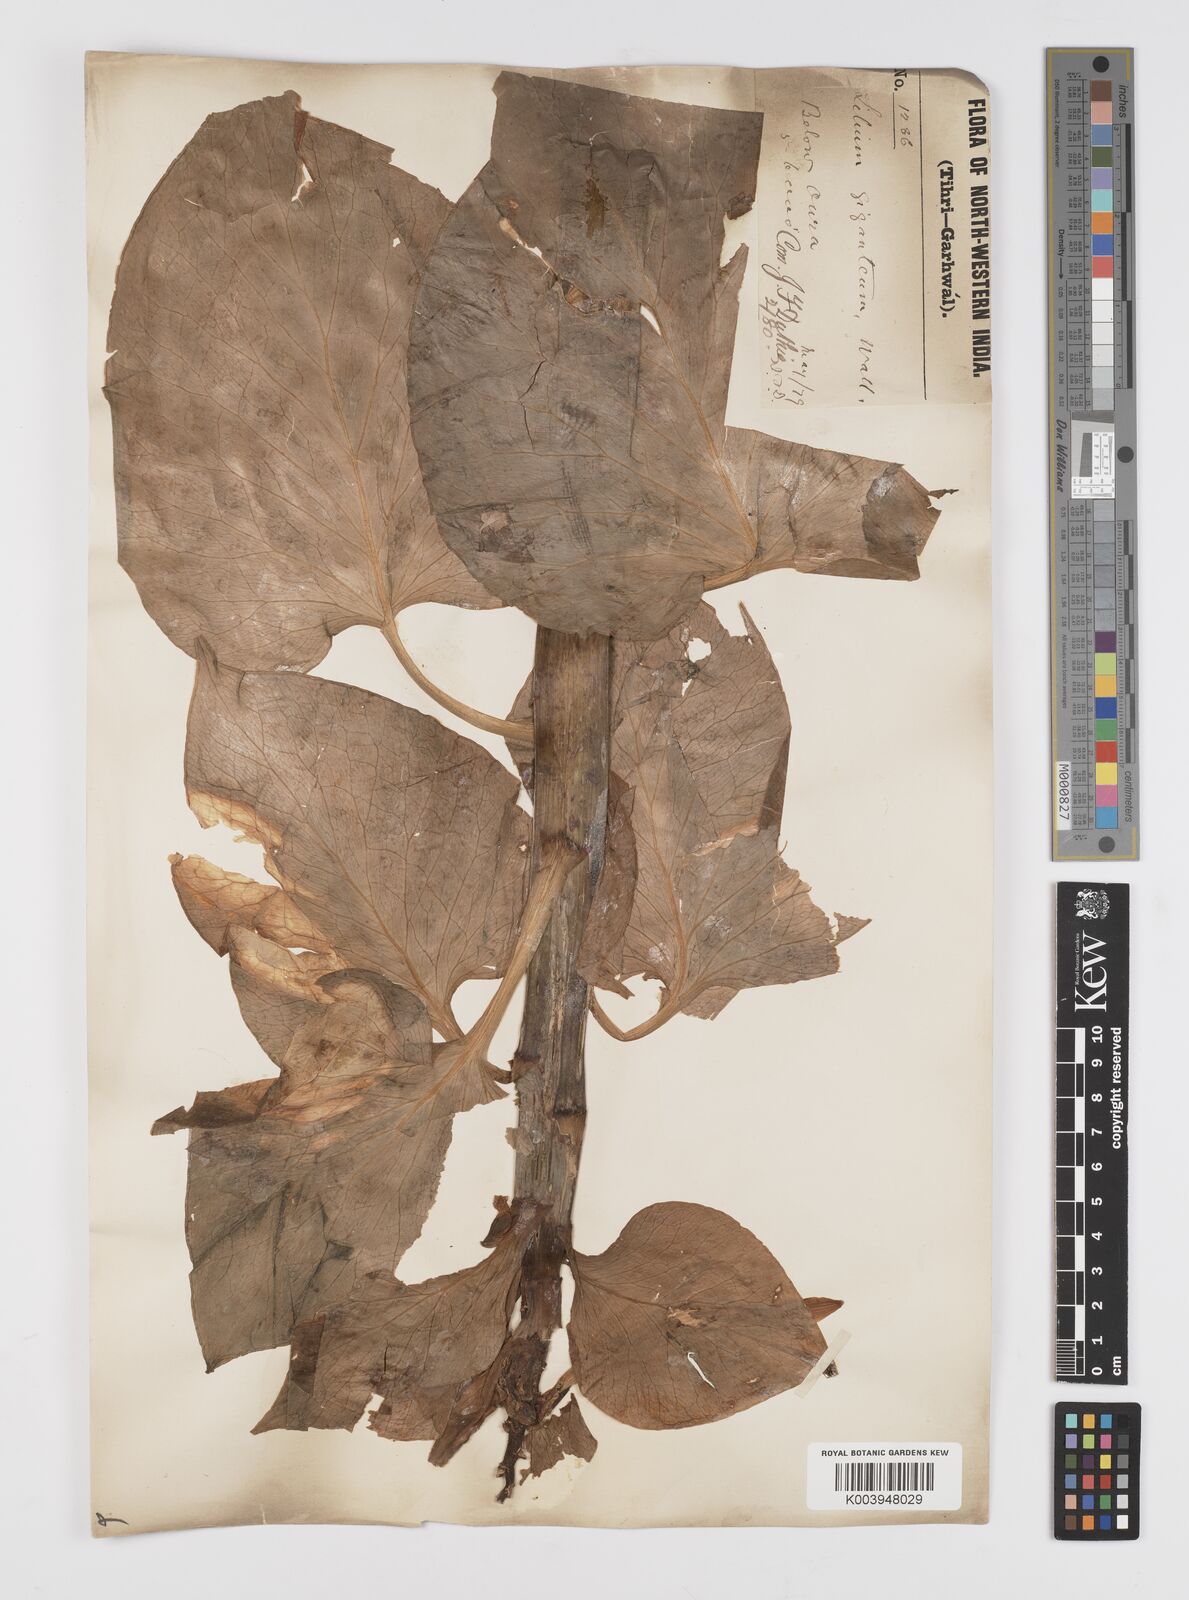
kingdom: Plantae
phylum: Tracheophyta
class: Liliopsida
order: Liliales
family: Liliaceae
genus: Cardiocrinum
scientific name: Cardiocrinum giganteum
